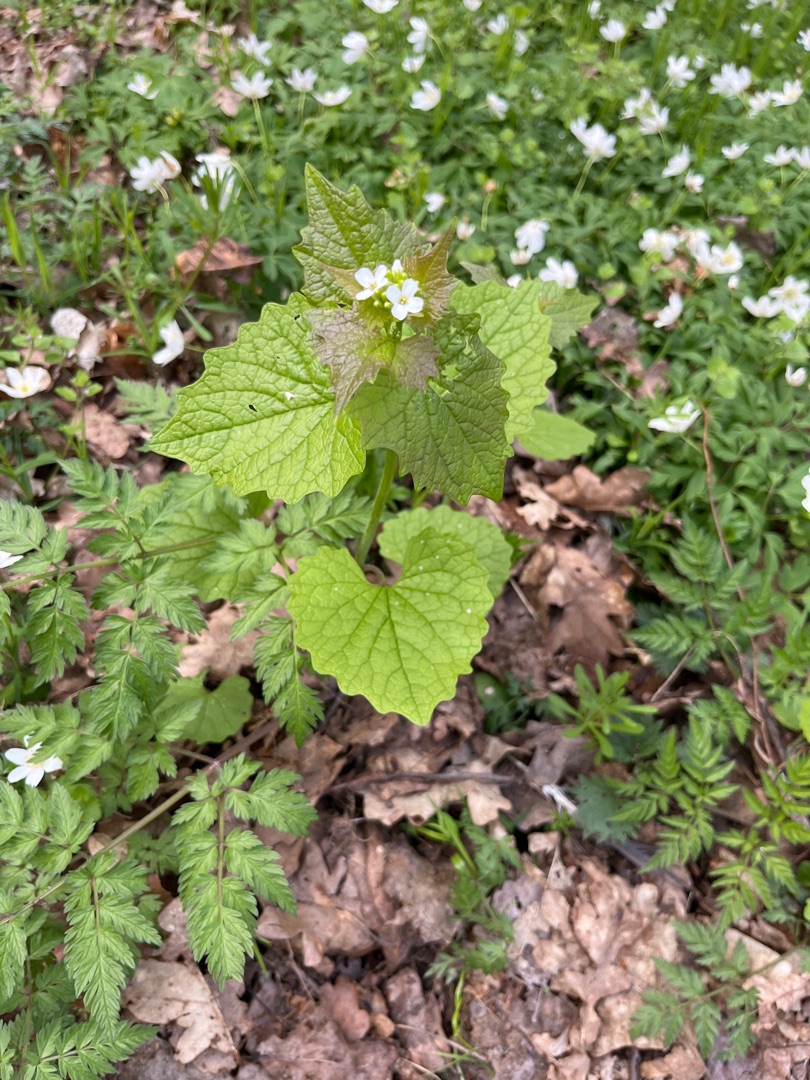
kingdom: Plantae
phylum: Tracheophyta
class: Magnoliopsida
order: Brassicales
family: Brassicaceae
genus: Alliaria
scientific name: Alliaria petiolata
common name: Løgkarse
